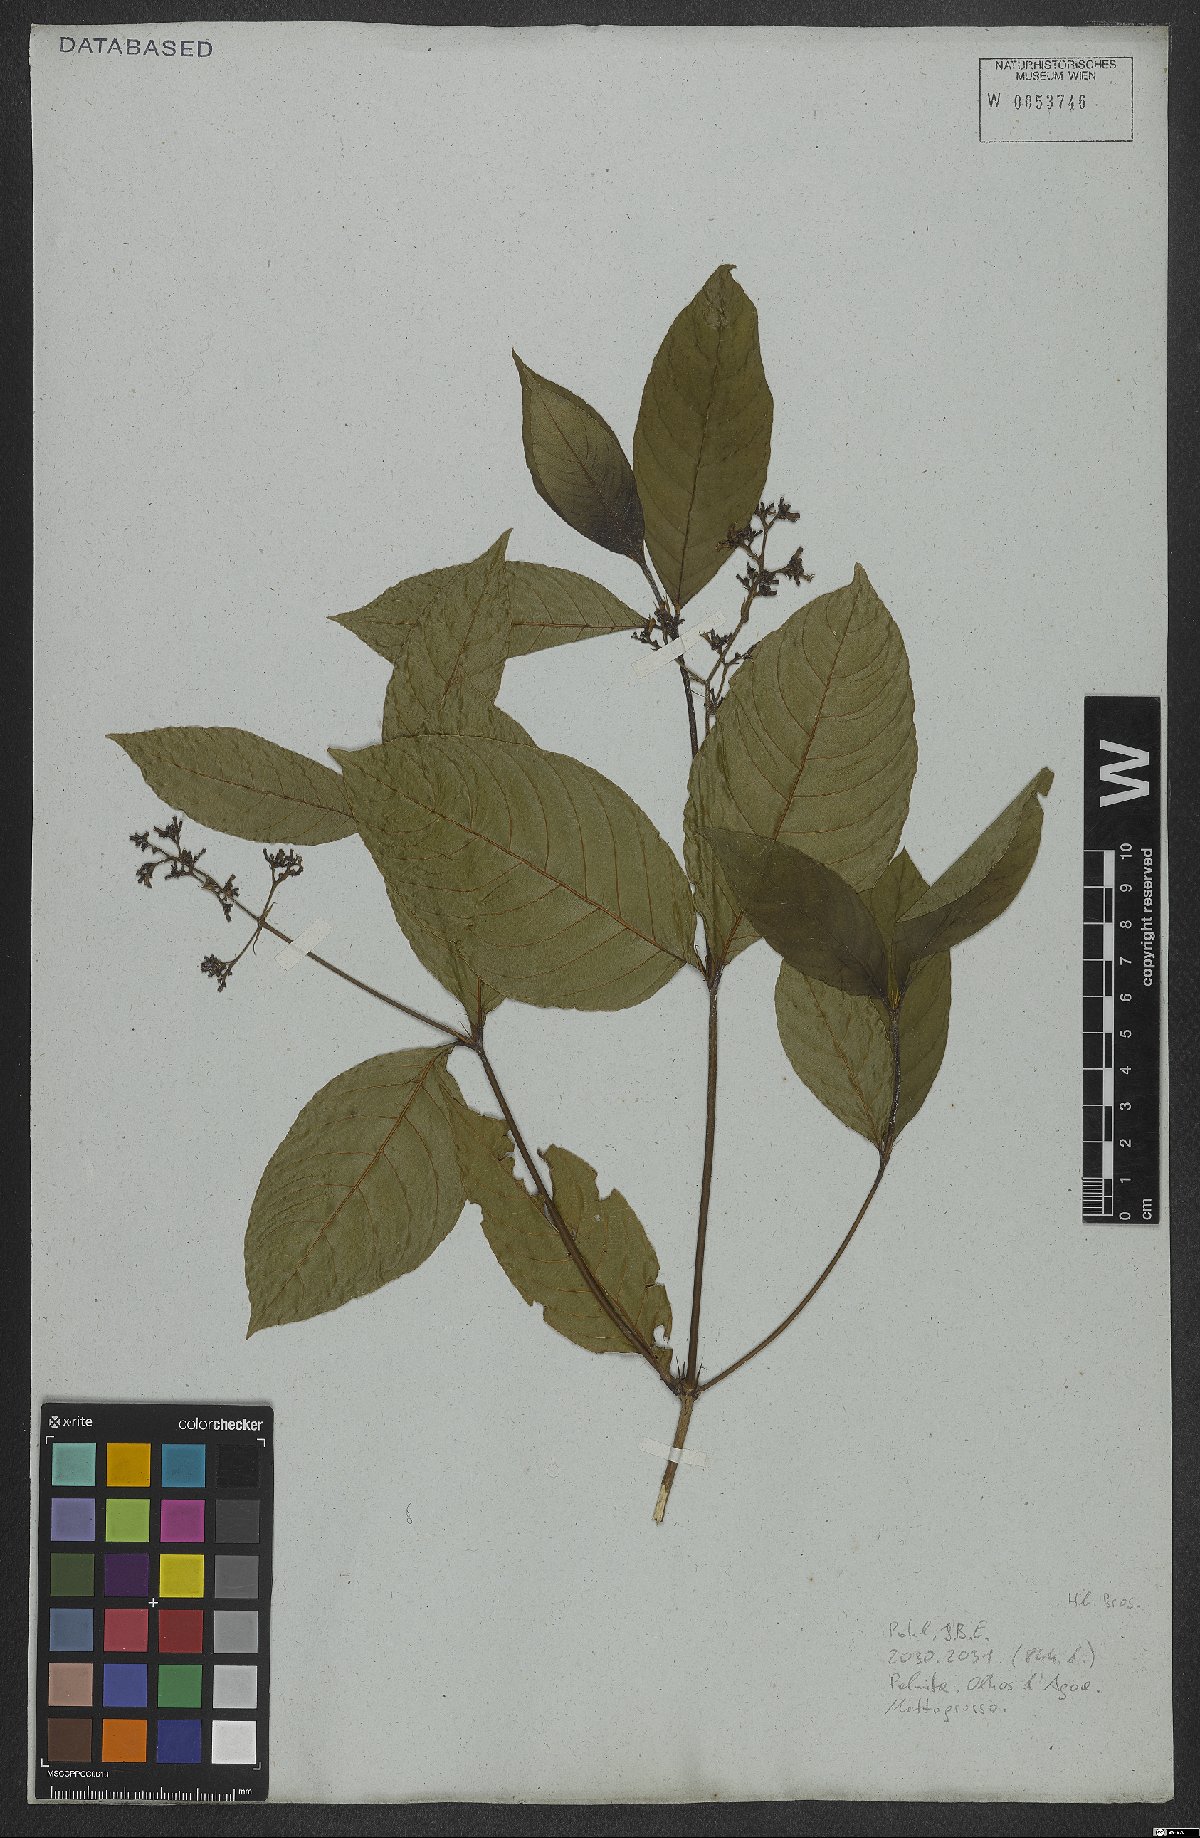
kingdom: Plantae
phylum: Tracheophyta
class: Magnoliopsida
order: Gentianales
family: Rubiaceae
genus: Palicourea
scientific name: Palicourea crocea
